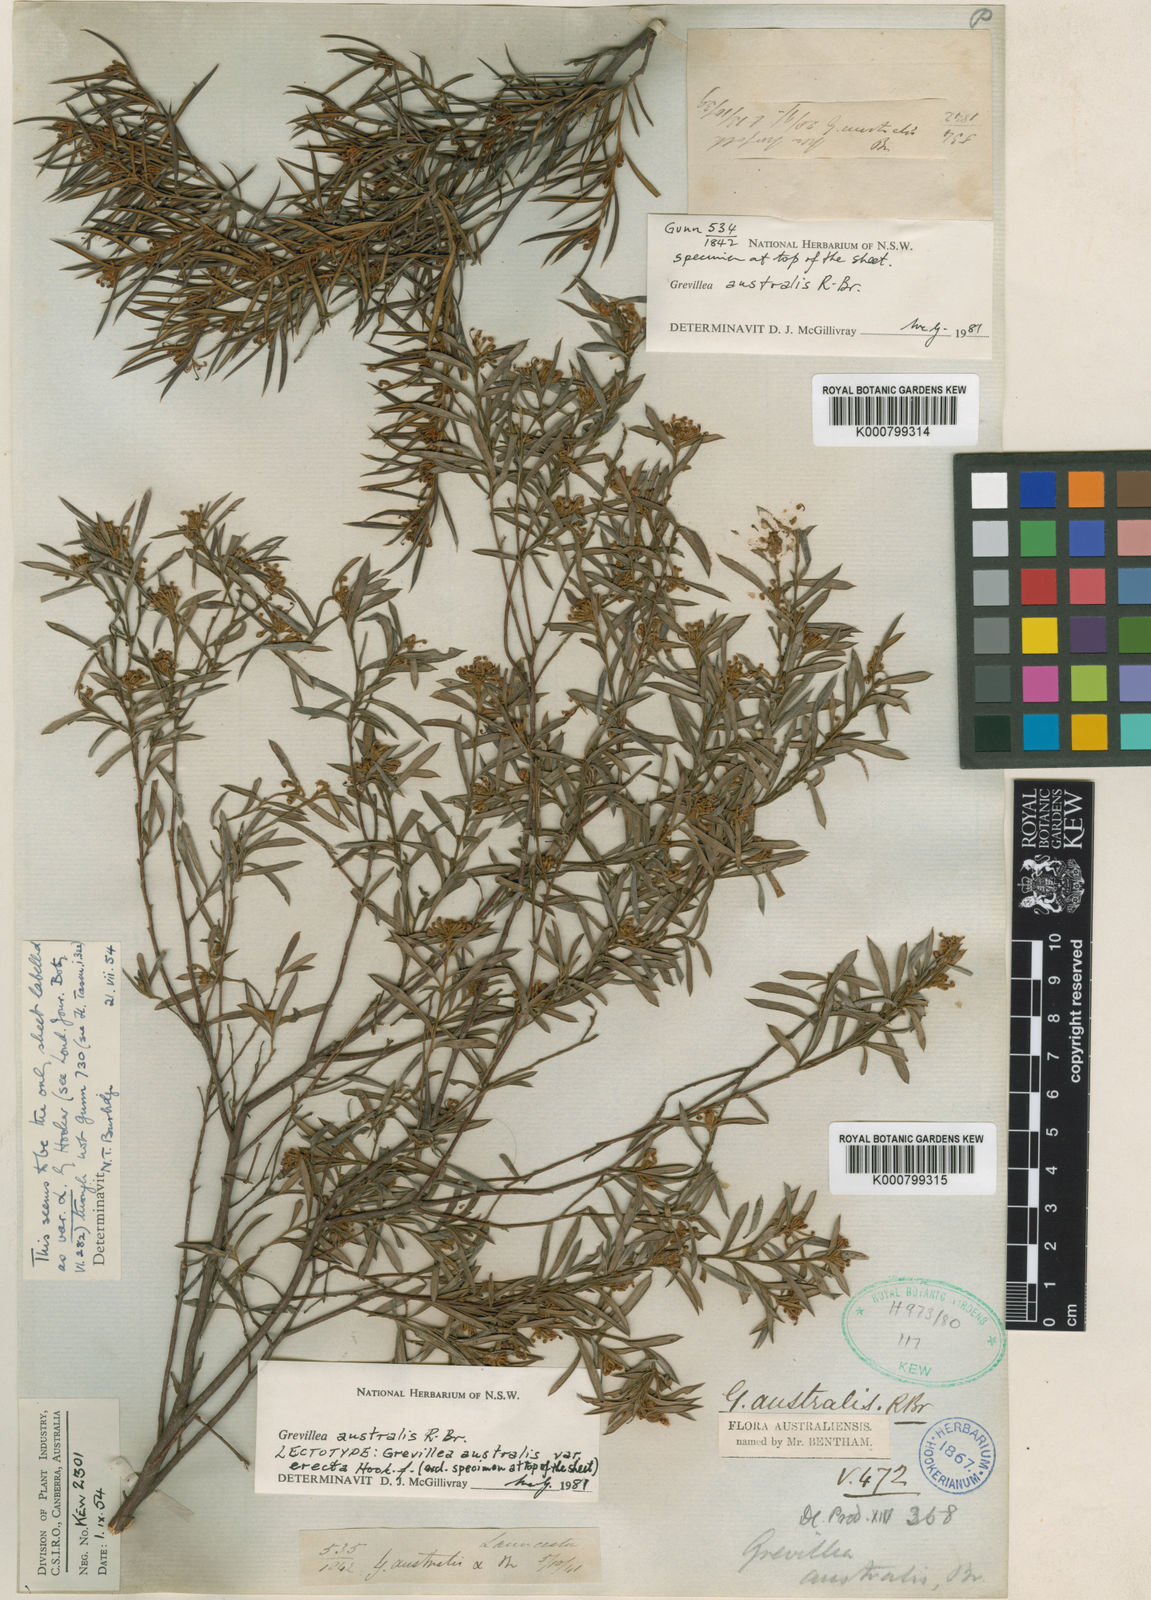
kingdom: Plantae
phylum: Tracheophyta
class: Magnoliopsida
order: Proteales
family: Proteaceae
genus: Grevillea
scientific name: Grevillea australis
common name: Alpine grevillea
